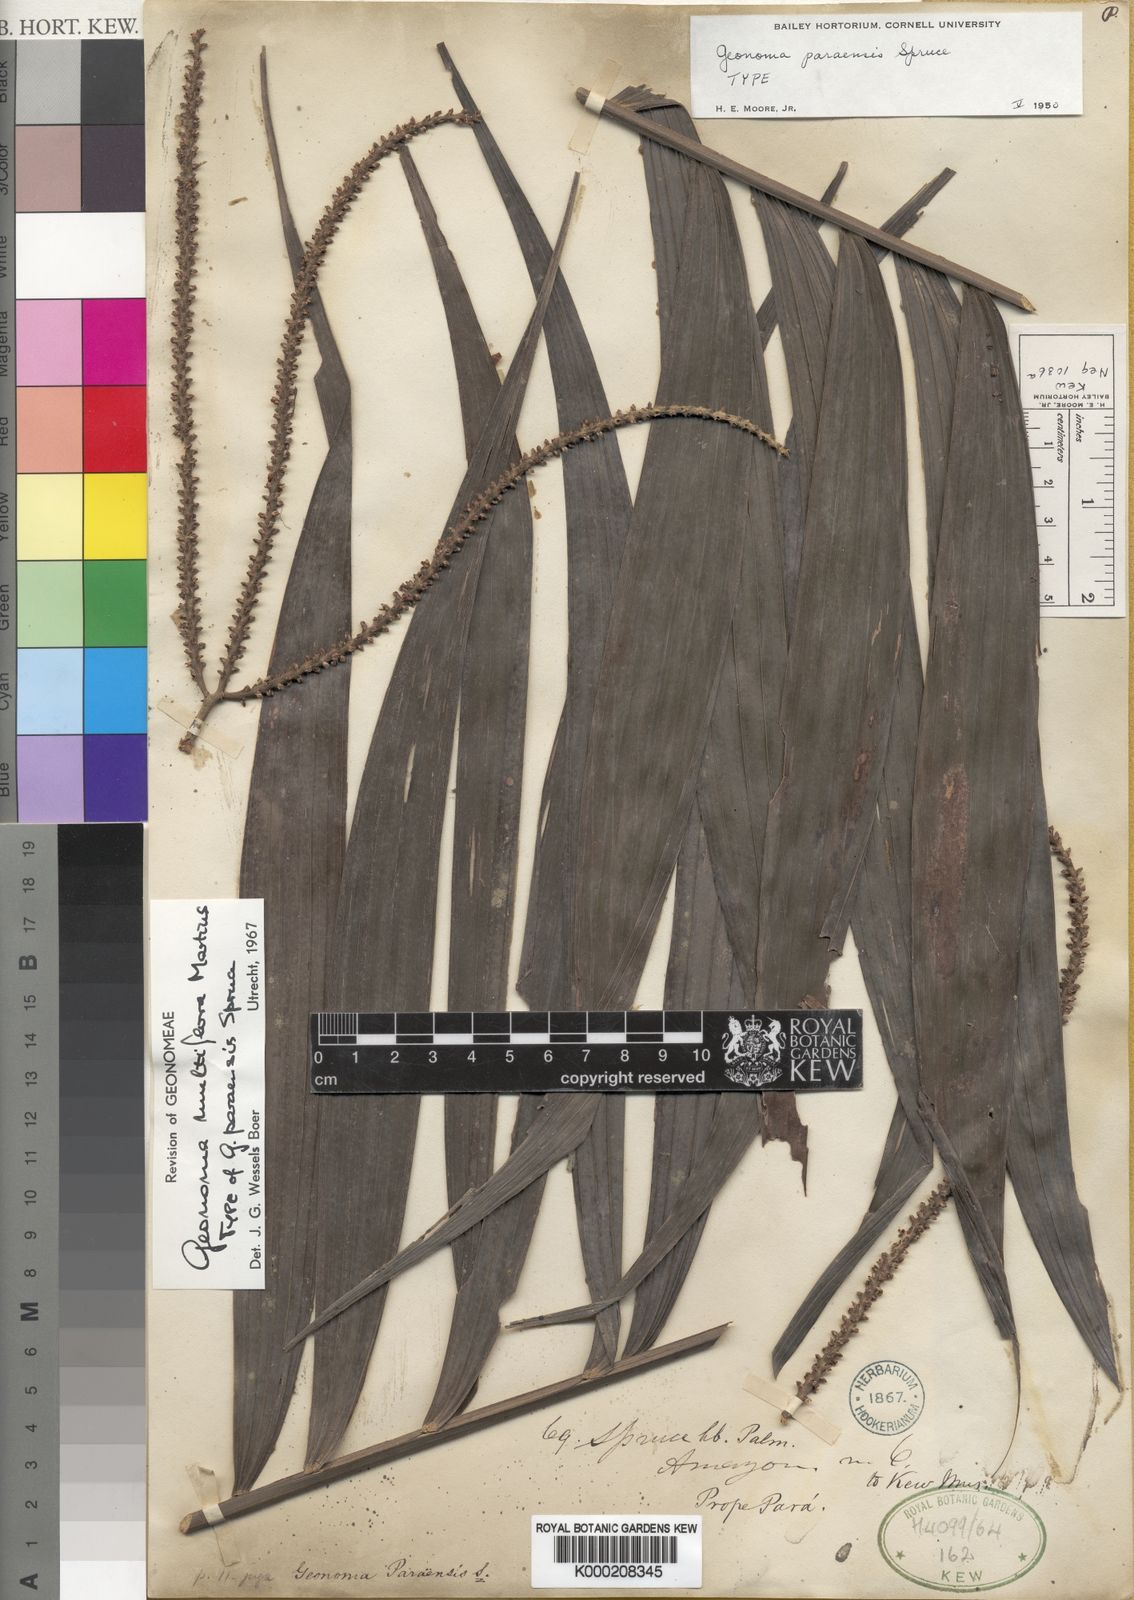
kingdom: Plantae
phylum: Tracheophyta
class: Liliopsida
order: Arecales
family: Arecaceae
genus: Geonoma
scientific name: Geonoma maxima
